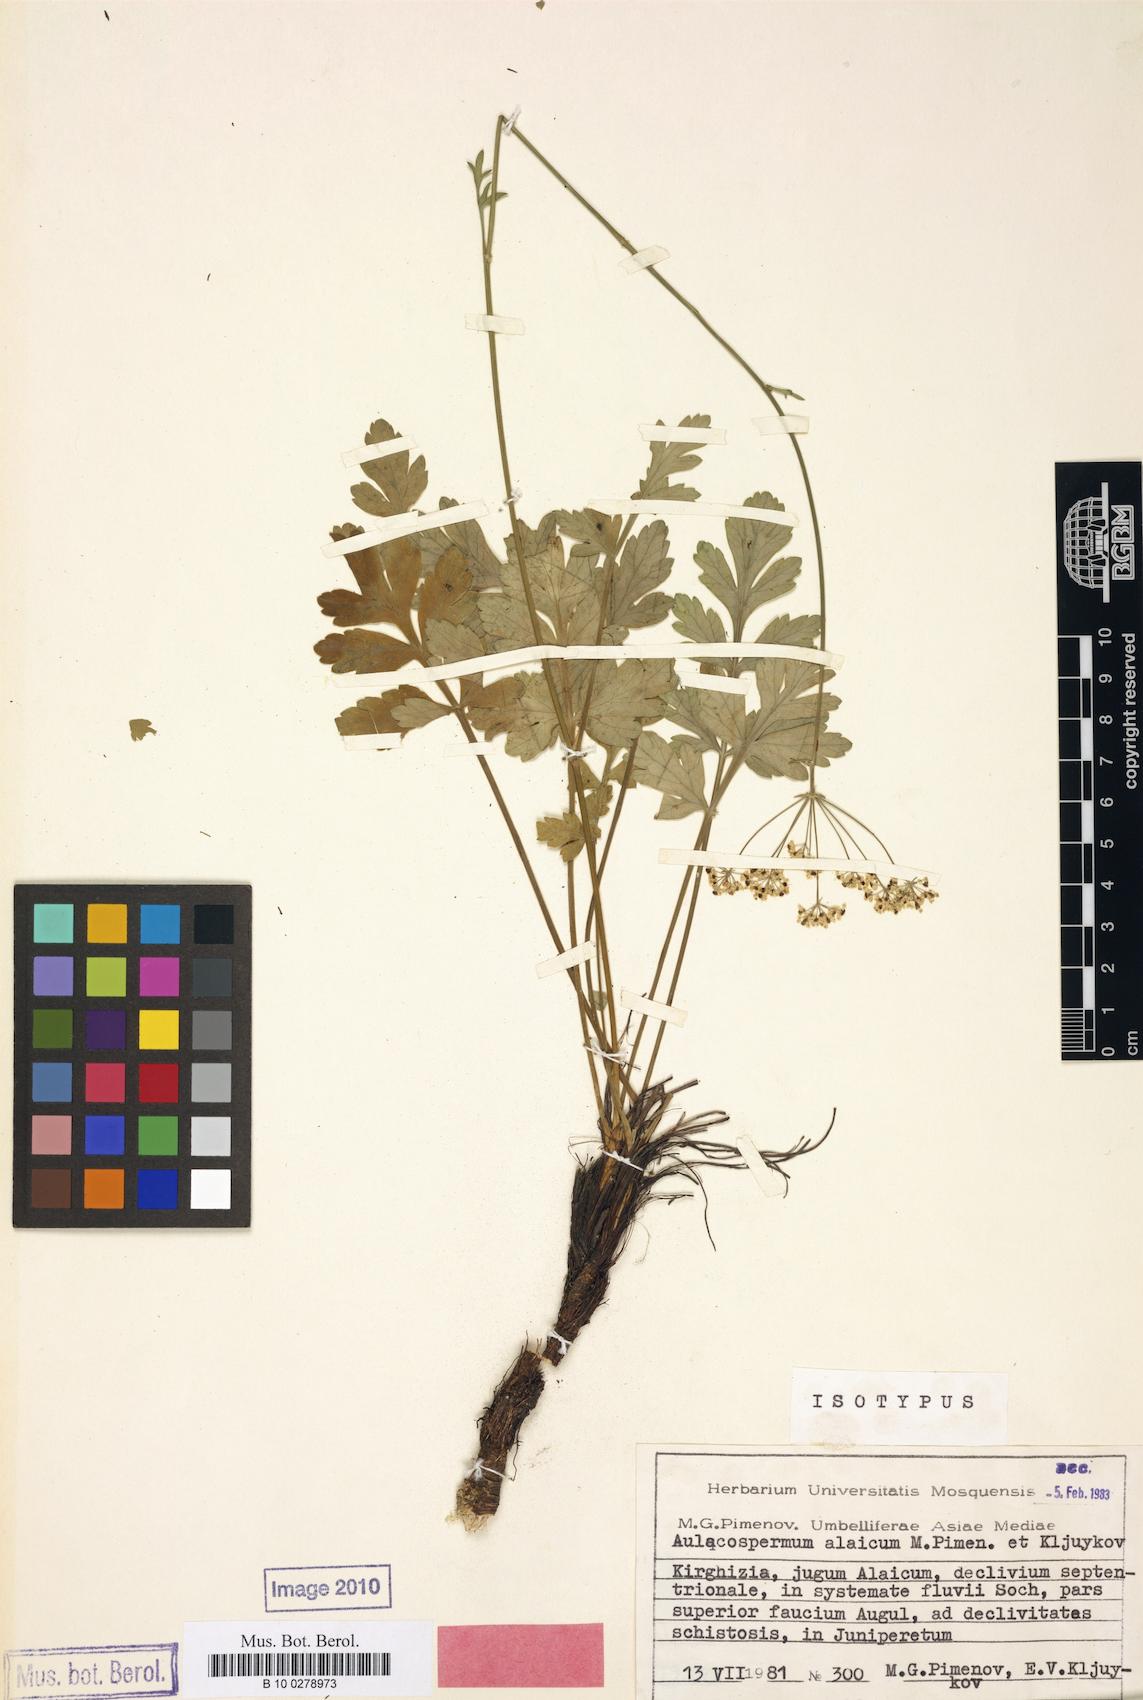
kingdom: Plantae
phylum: Tracheophyta
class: Magnoliopsida
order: Apiales
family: Apiaceae
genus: Lomatocarpa
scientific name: Lomatocarpa alata
